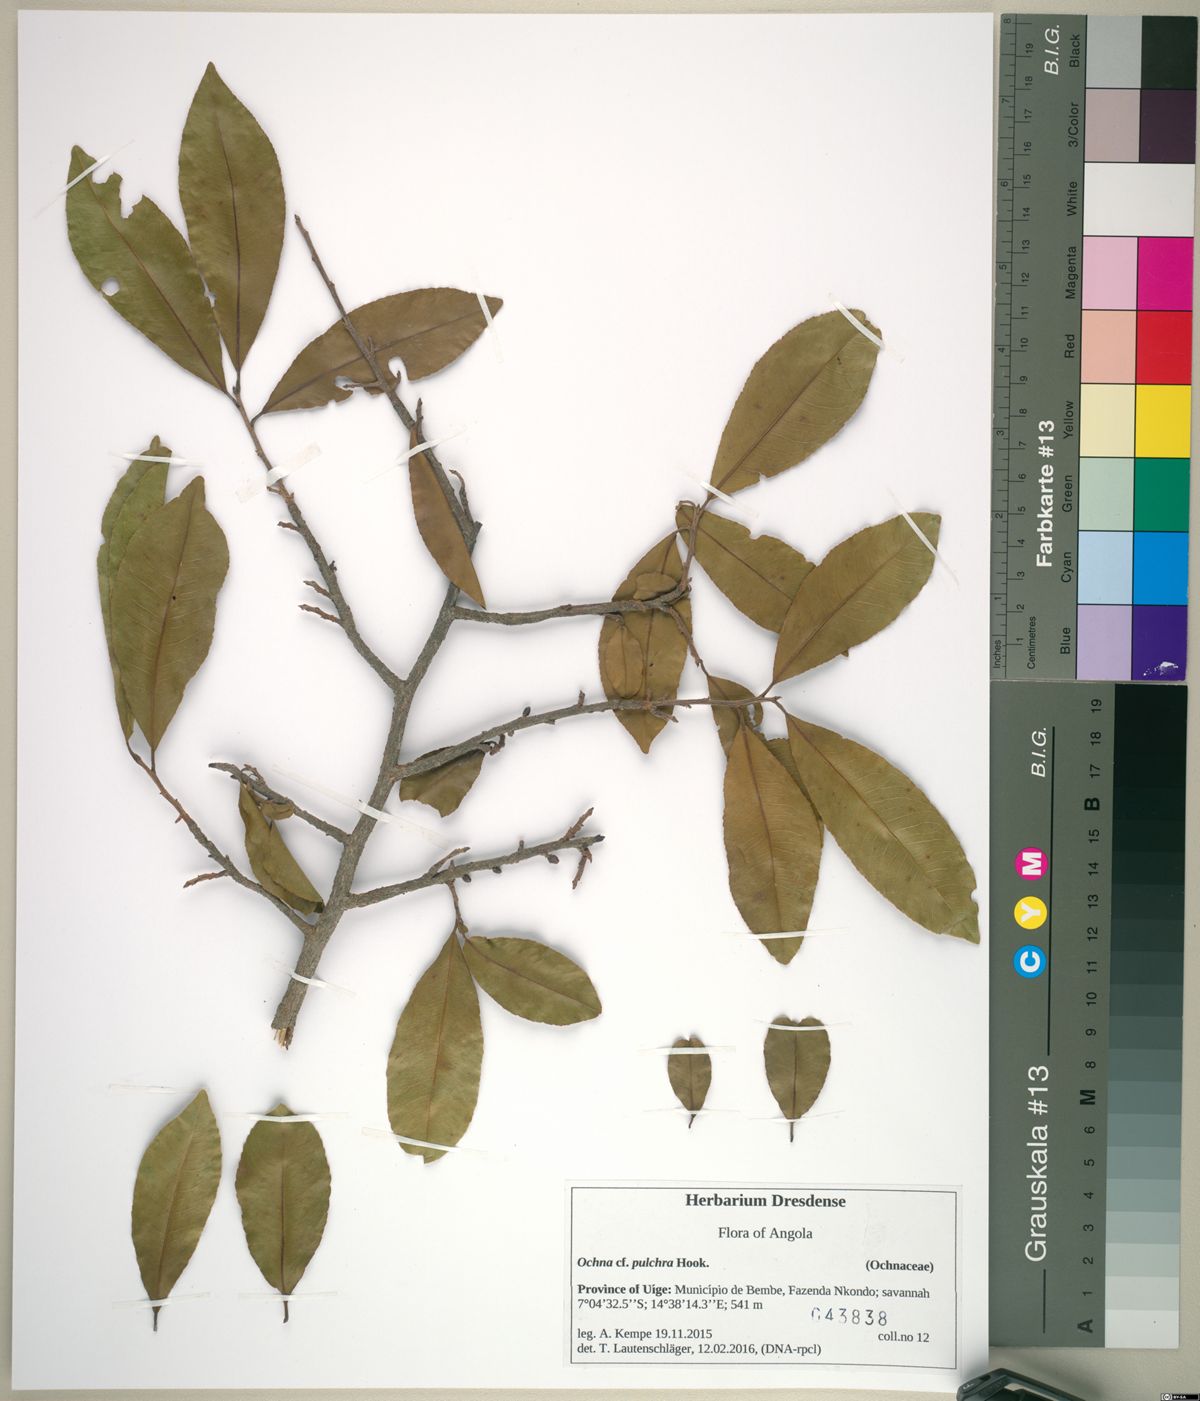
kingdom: Plantae
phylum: Tracheophyta
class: Magnoliopsida
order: Malpighiales
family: Ochnaceae
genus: Ochna
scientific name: Ochna afzelii
